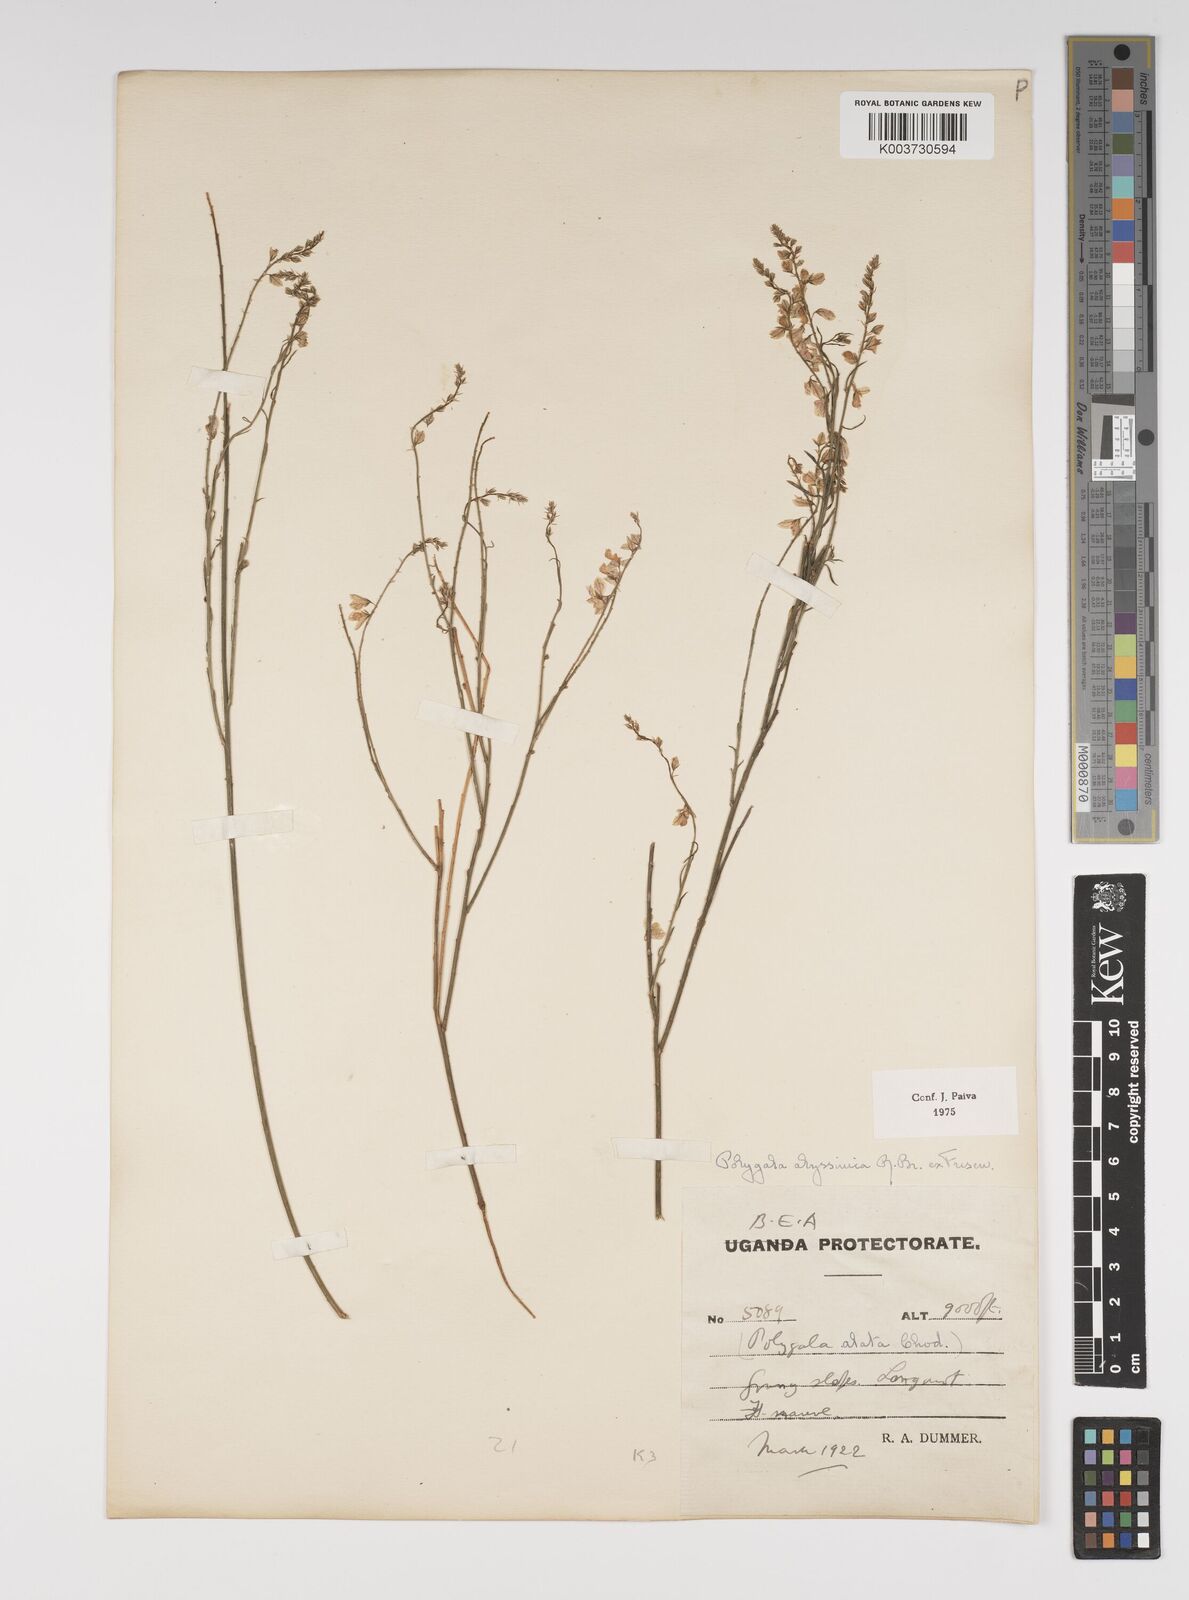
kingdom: Plantae
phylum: Tracheophyta
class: Magnoliopsida
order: Fabales
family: Polygalaceae
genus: Polygala
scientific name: Polygala abyssinica
